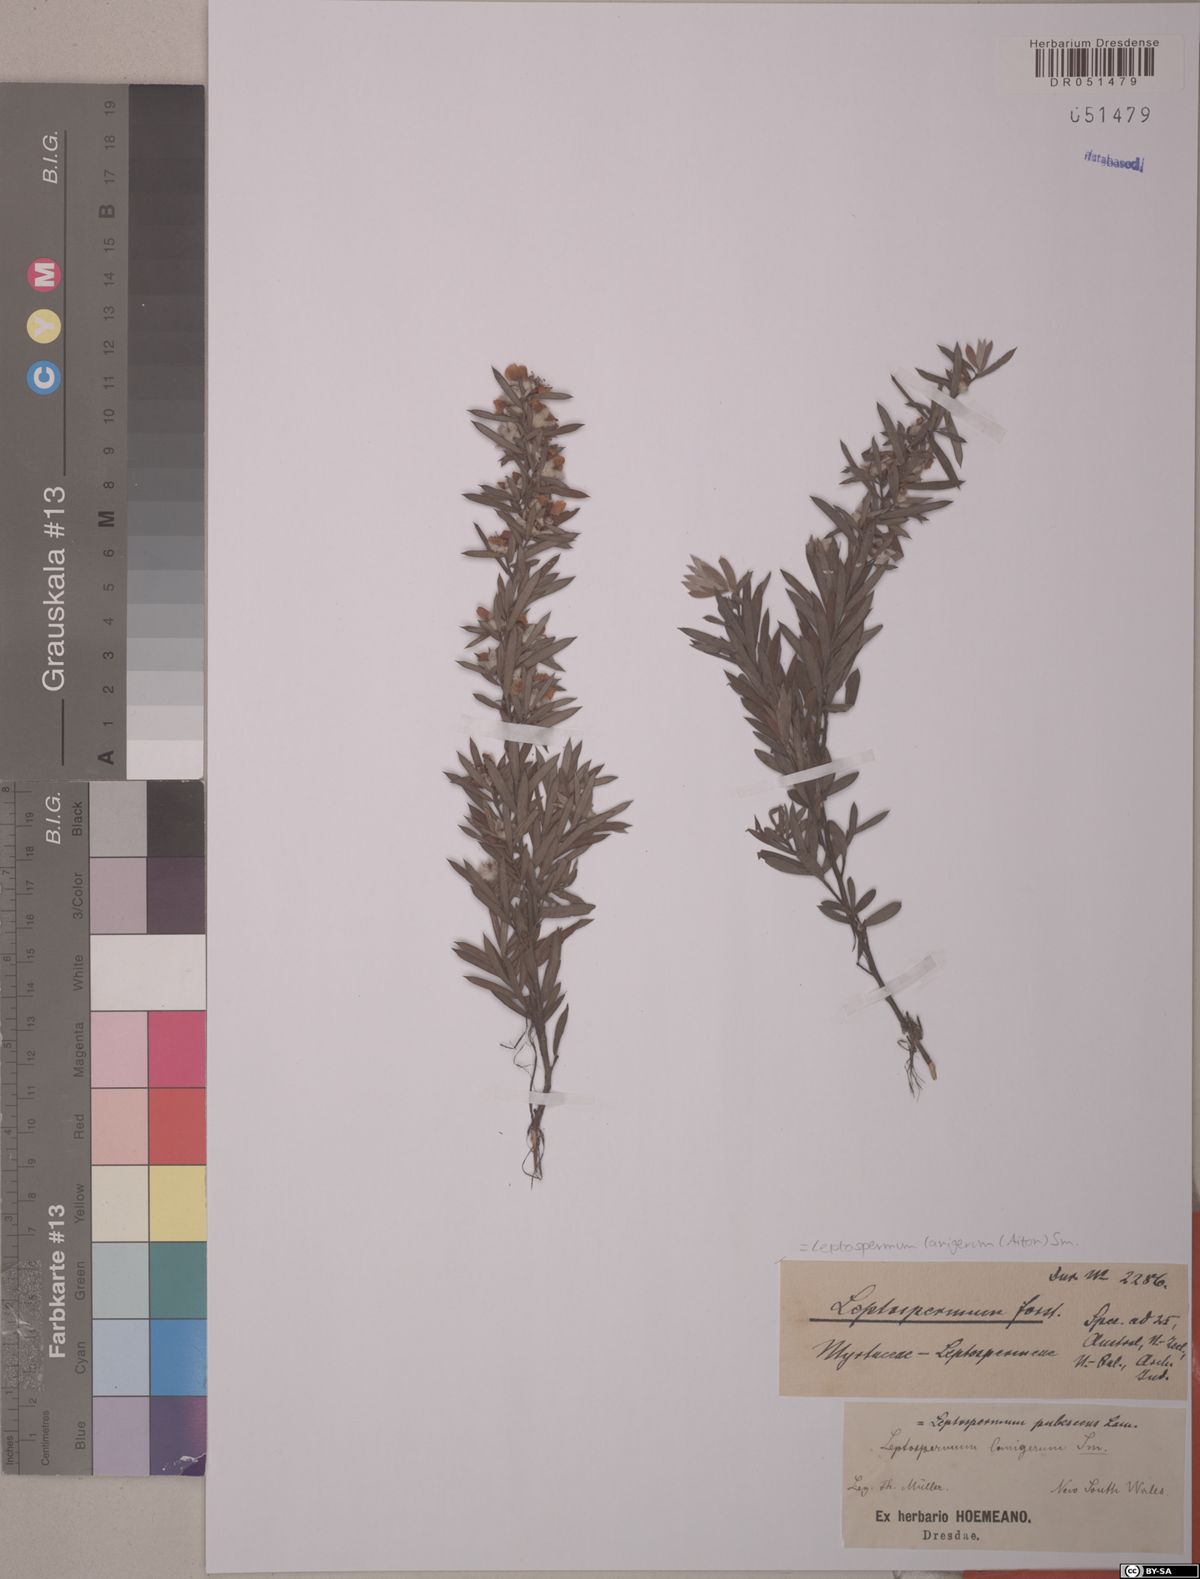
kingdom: Plantae
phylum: Tracheophyta
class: Magnoliopsida
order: Myrtales
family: Myrtaceae
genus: Leptospermum
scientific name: Leptospermum lanigerum
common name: Woolly tea-tree
